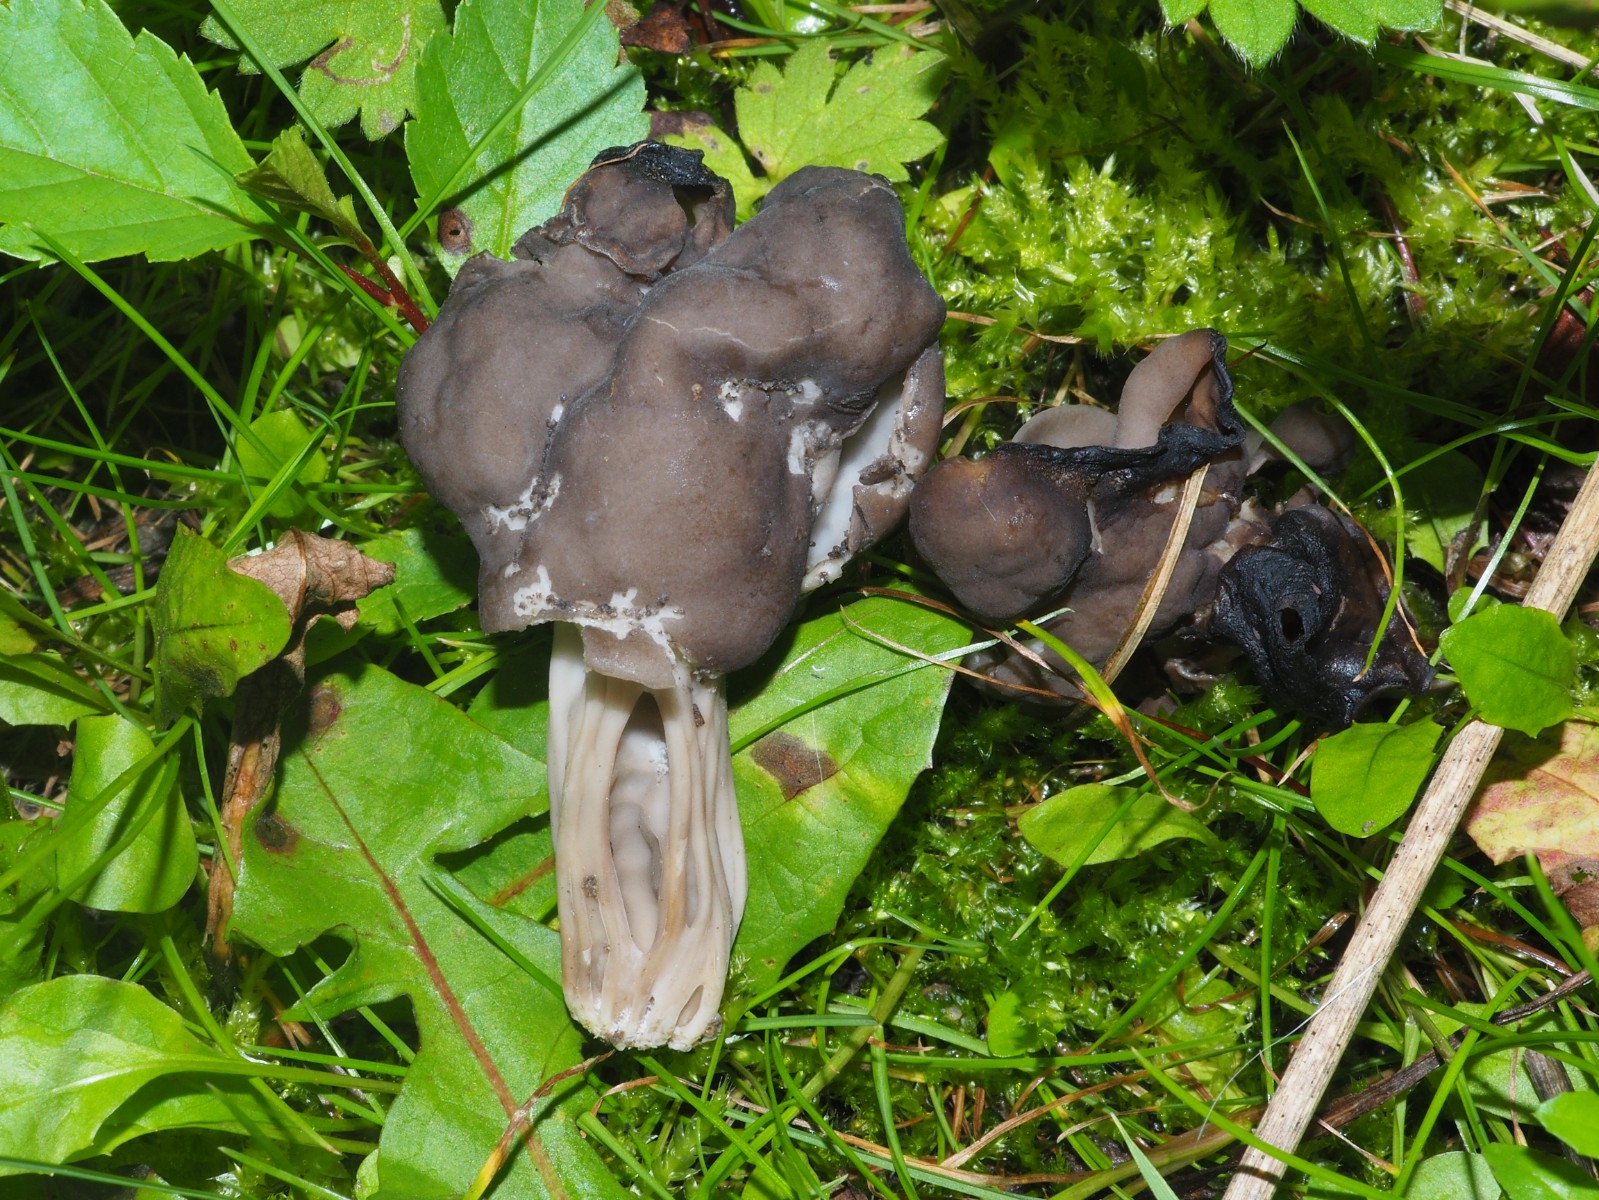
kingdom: Fungi
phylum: Ascomycota
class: Pezizomycetes
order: Pezizales
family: Helvellaceae
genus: Helvella
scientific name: Helvella lacunosa
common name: grubet foldhat
